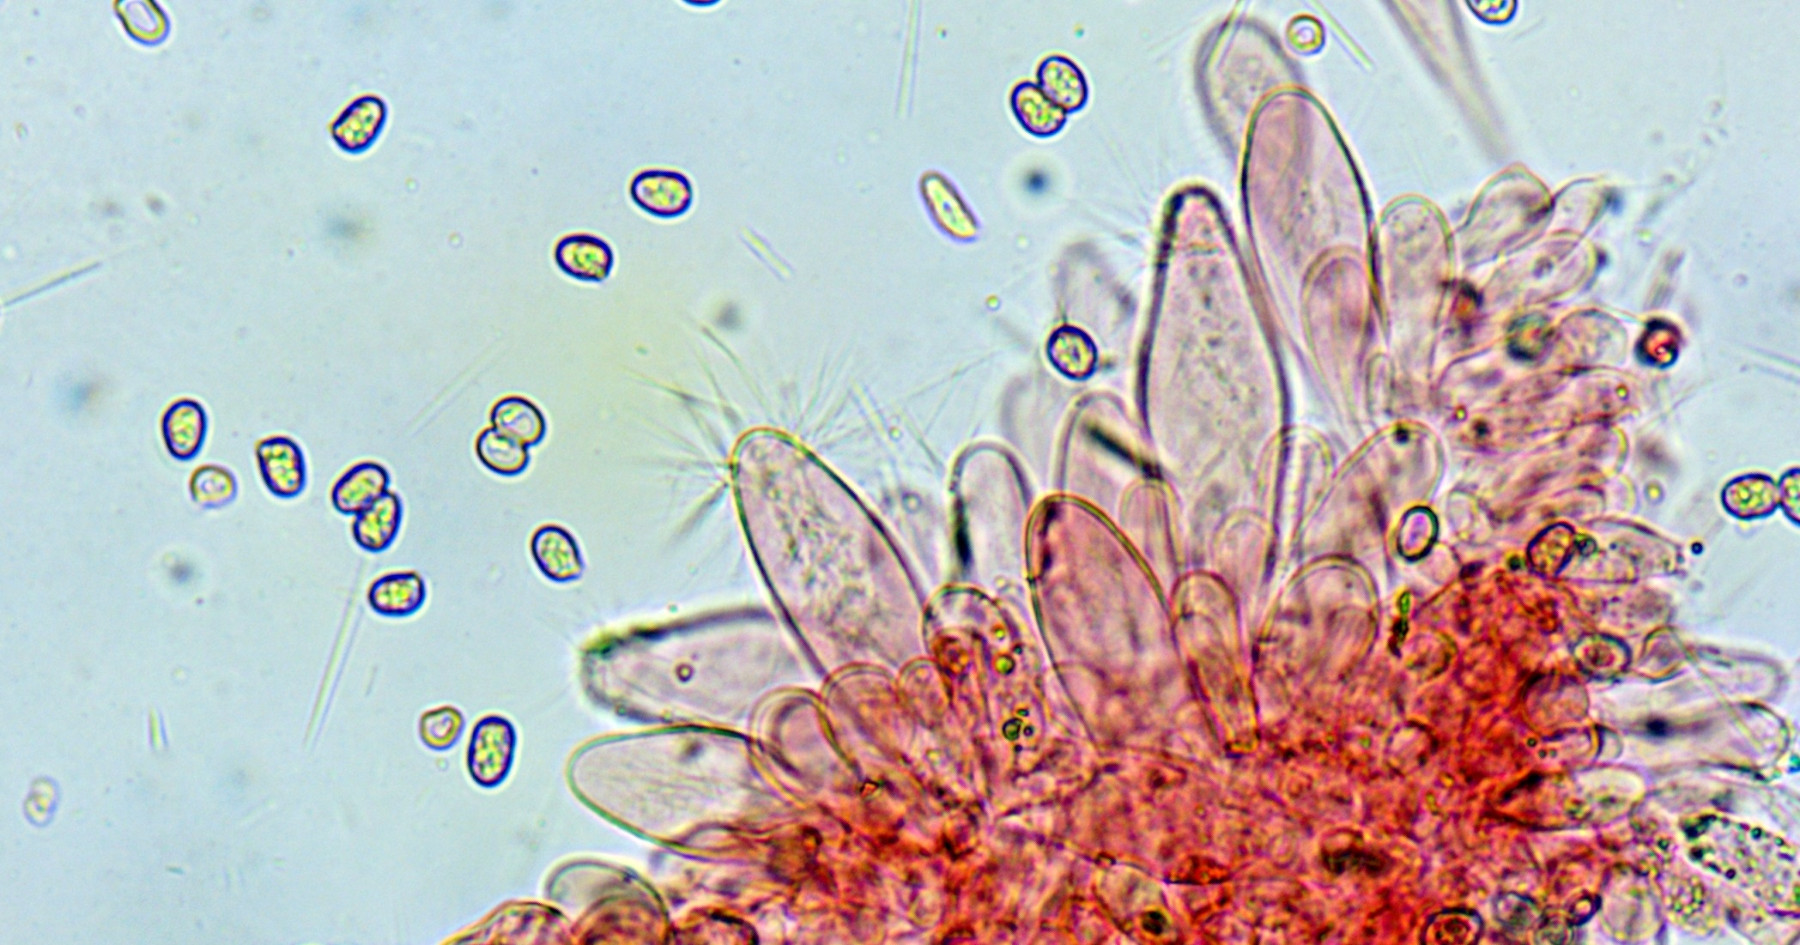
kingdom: Fungi
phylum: Basidiomycota
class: Agaricomycetes
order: Agaricales
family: Pluteaceae
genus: Pluteus
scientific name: Pluteus
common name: pudret skærmhat
